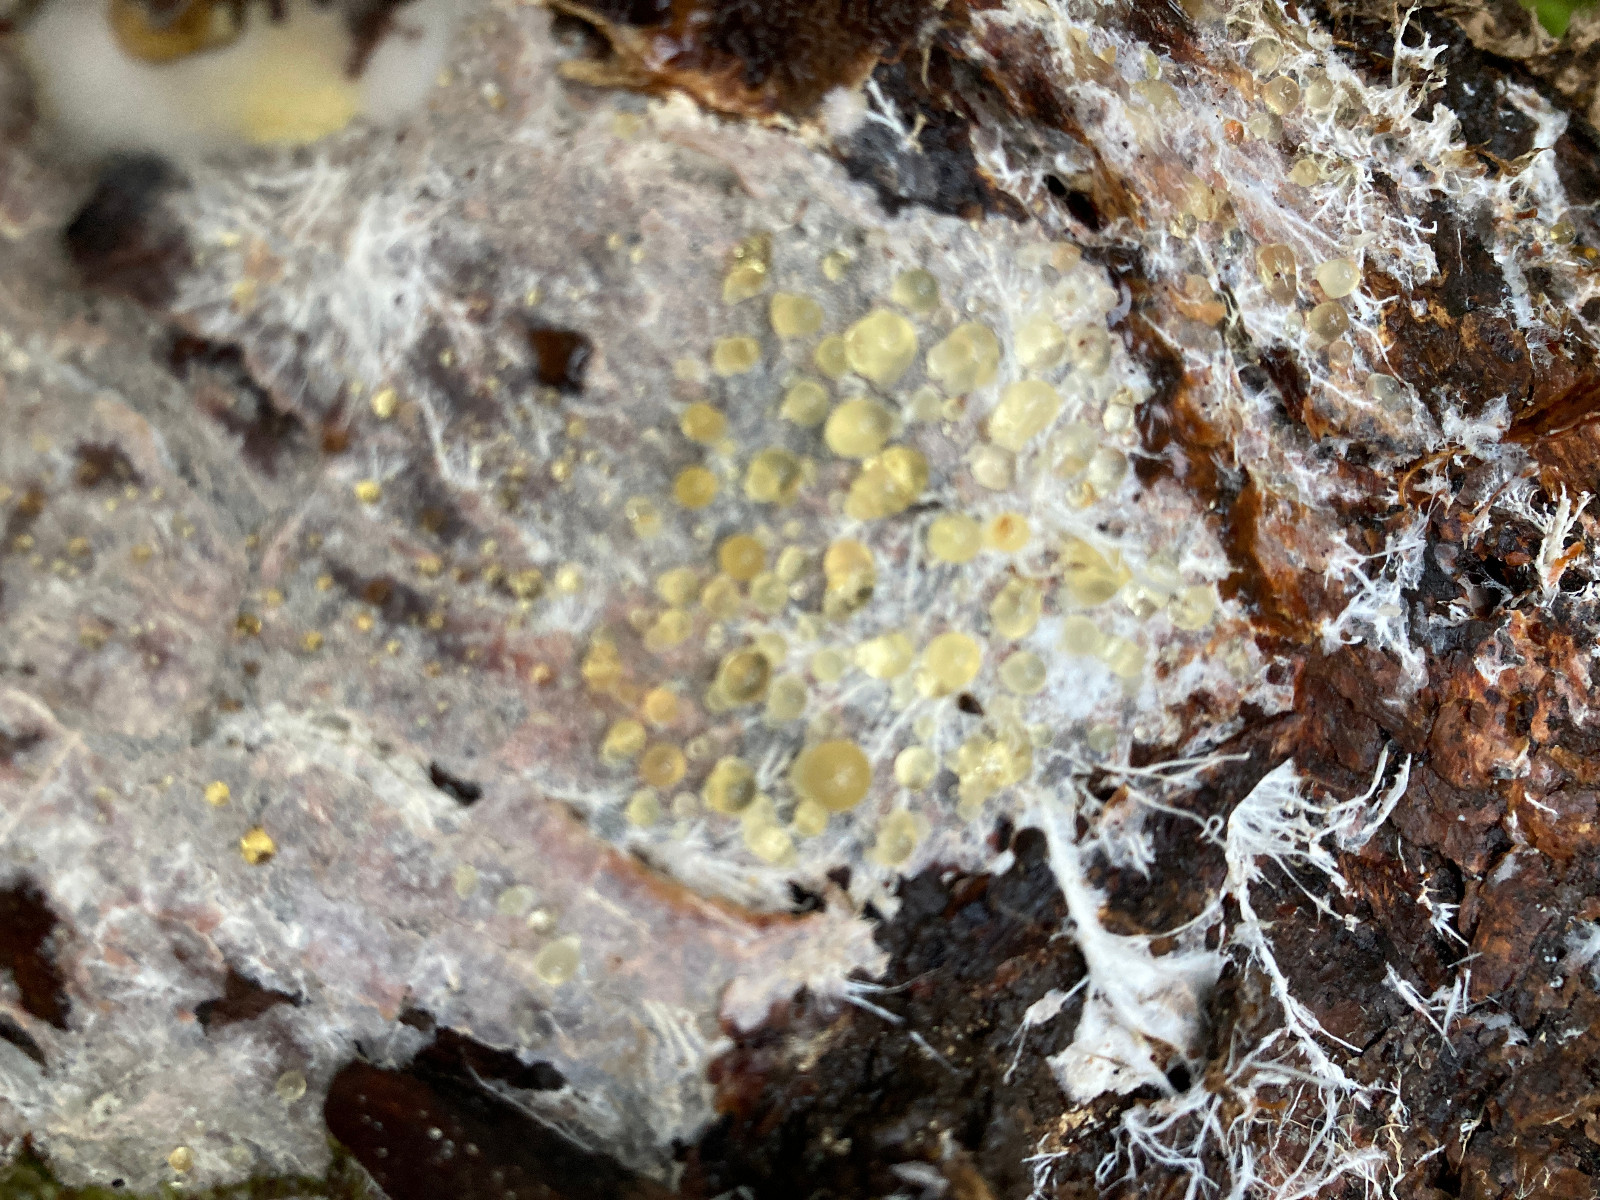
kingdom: Fungi
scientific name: Fungi
